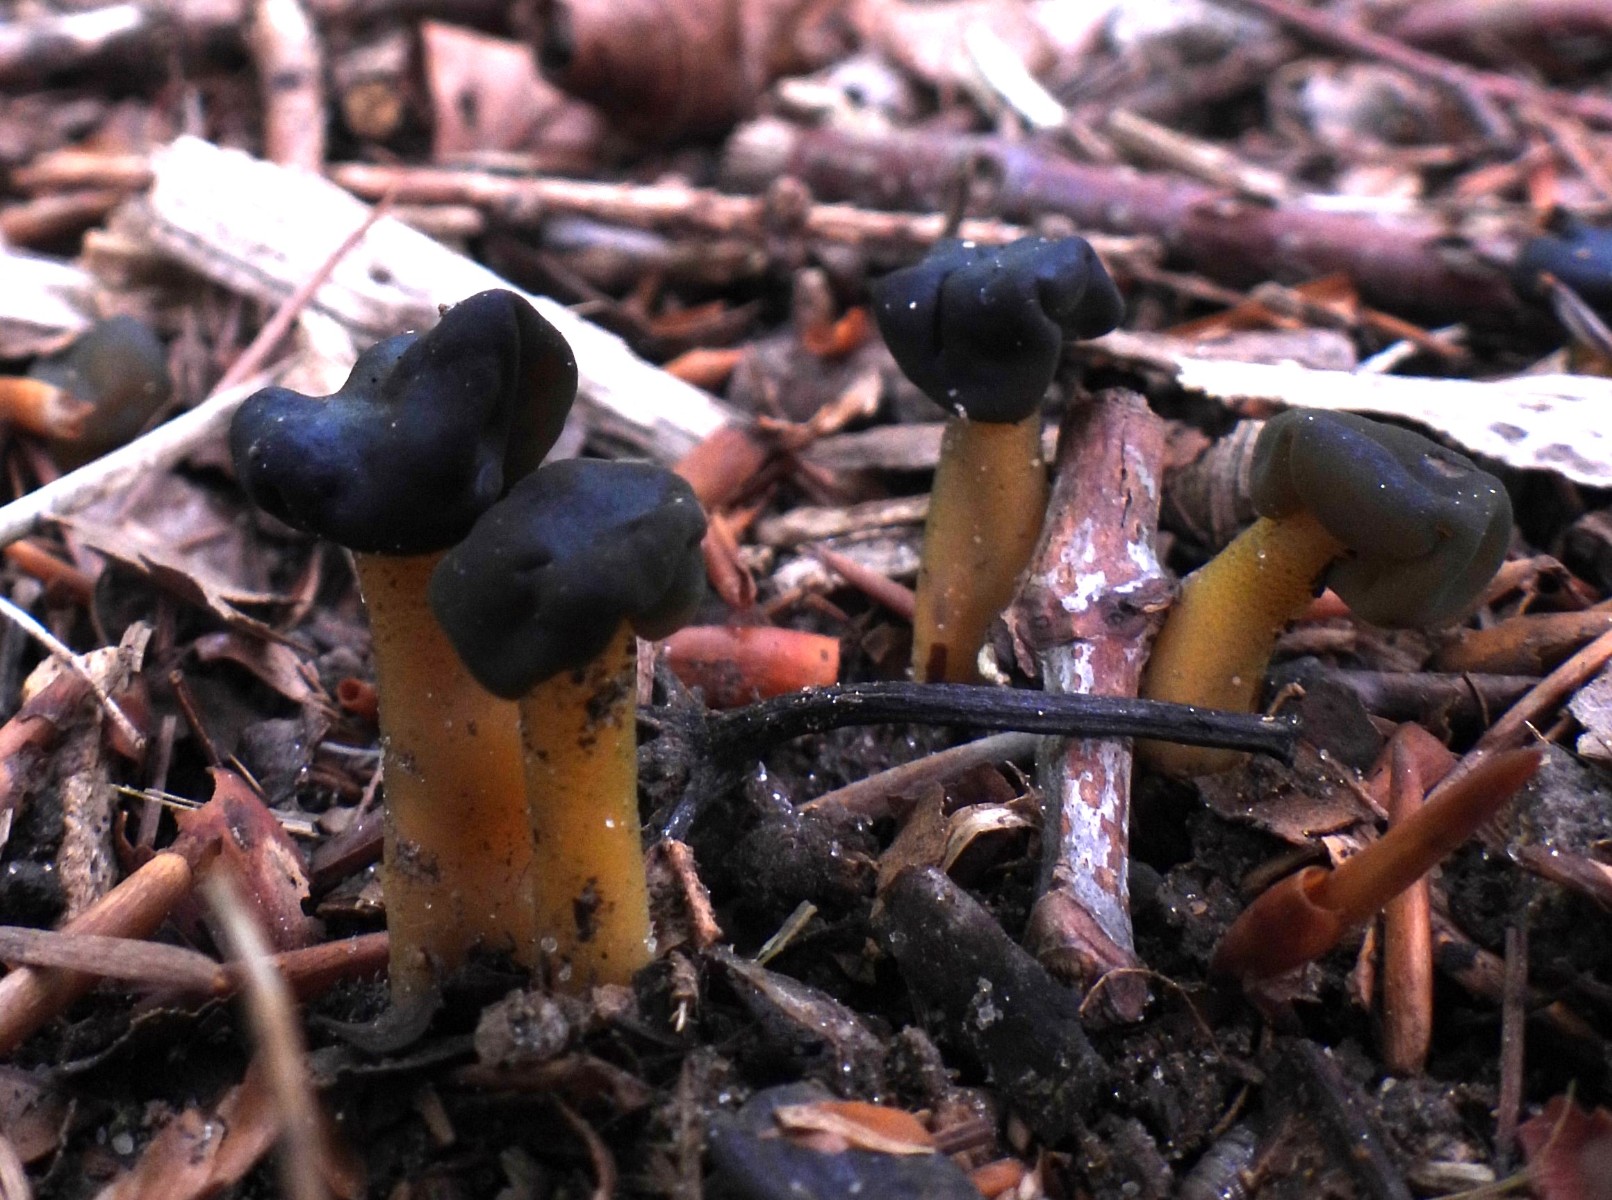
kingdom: Fungi
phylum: Ascomycota
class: Leotiomycetes
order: Leotiales
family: Leotiaceae
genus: Leotia
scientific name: Leotia lubrica
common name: ravsvamp
